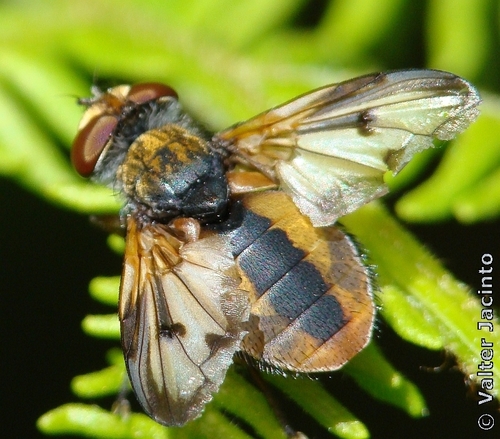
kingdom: Animalia
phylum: Arthropoda
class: Insecta
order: Diptera
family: Tachinidae
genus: Ectophasia
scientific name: Ectophasia crassipennis
